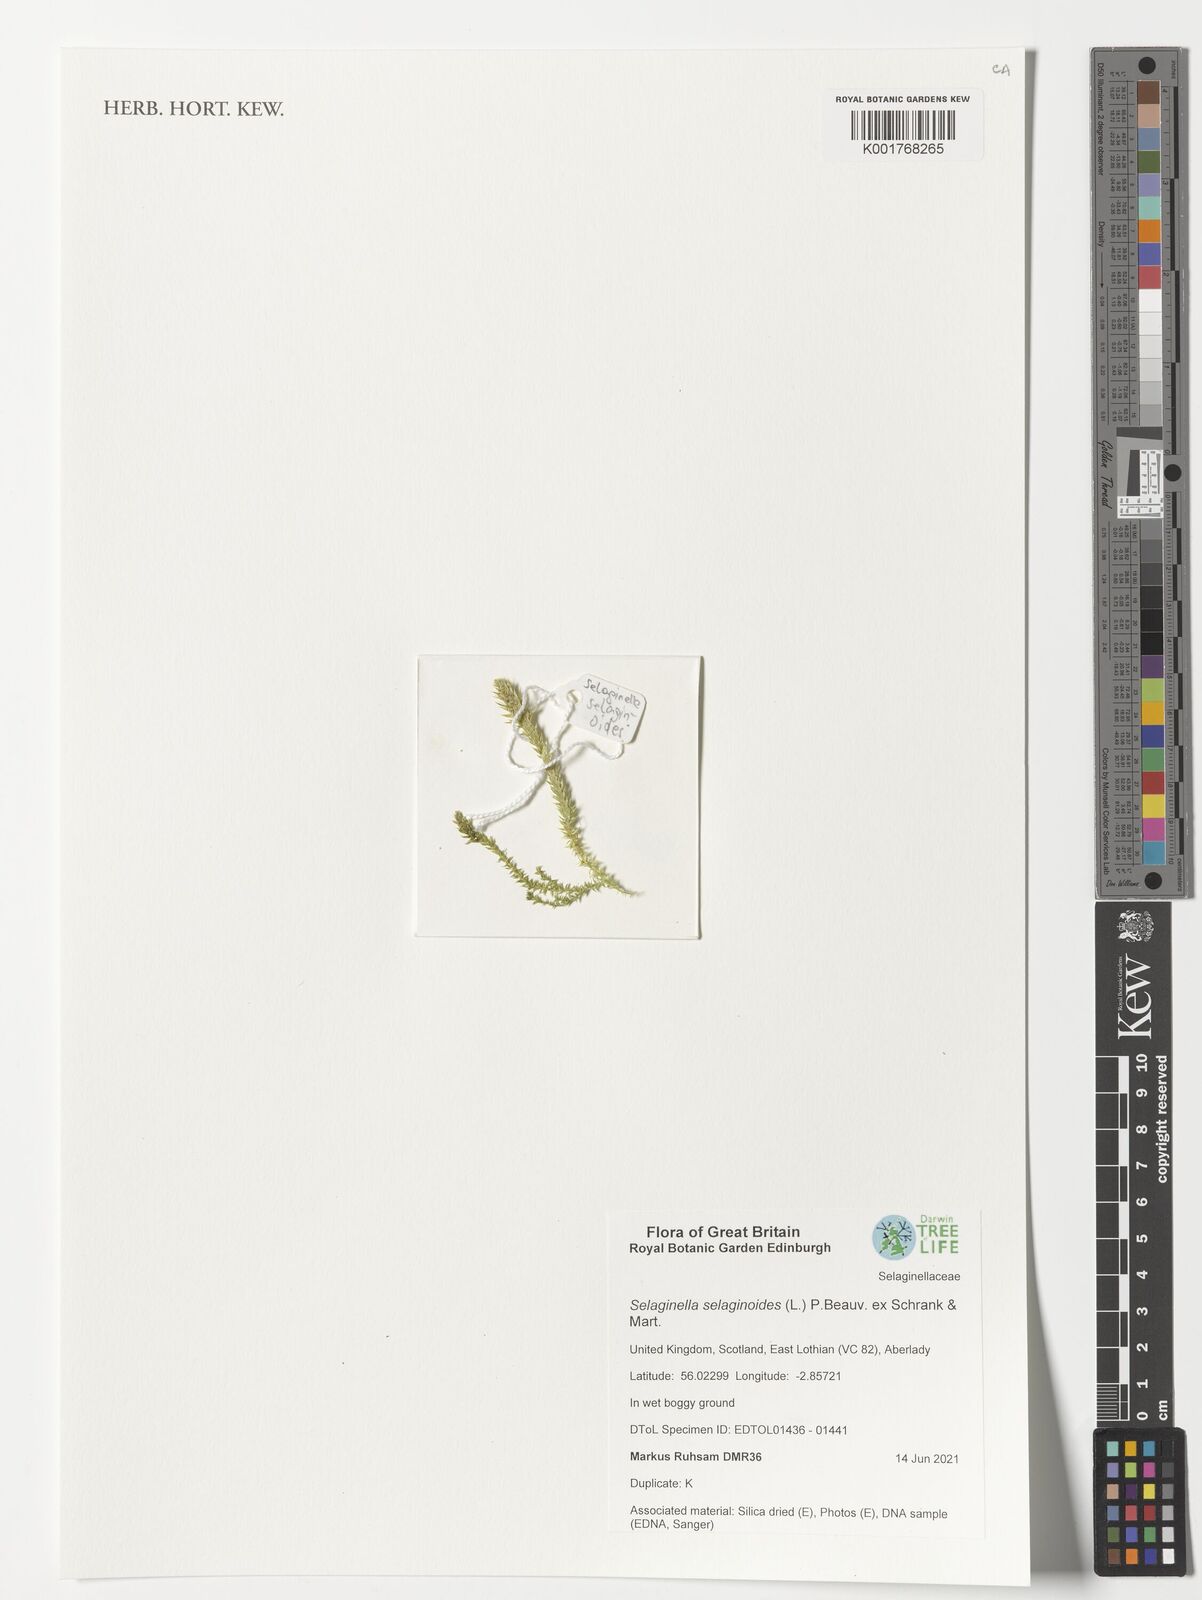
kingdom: Plantae
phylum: Tracheophyta
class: Lycopodiopsida
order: Selaginellales
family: Selaginellaceae
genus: Selaginella
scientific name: Selaginella selaginoides
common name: Prickly mountain-moss
